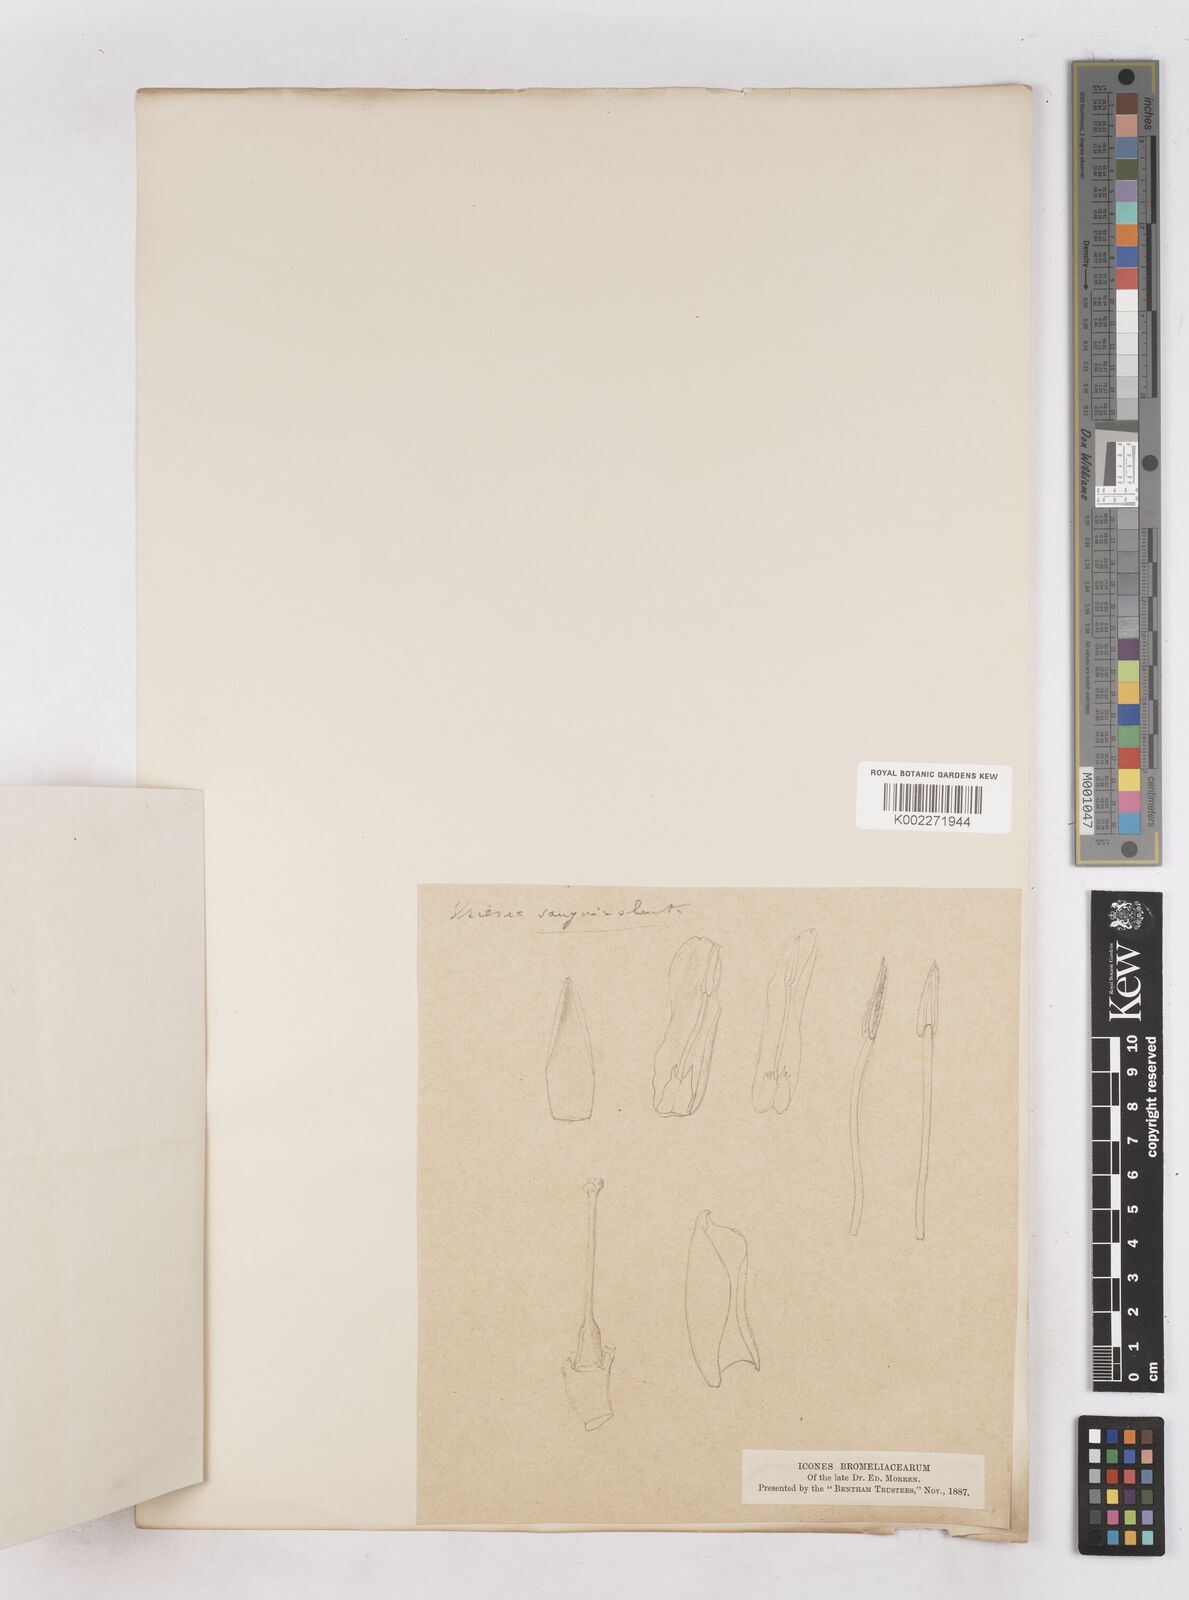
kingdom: Plantae
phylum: Tracheophyta
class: Liliopsida
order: Poales
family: Bromeliaceae
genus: Werauhia
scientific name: Werauhia sanguinolenta
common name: Bromeliad
